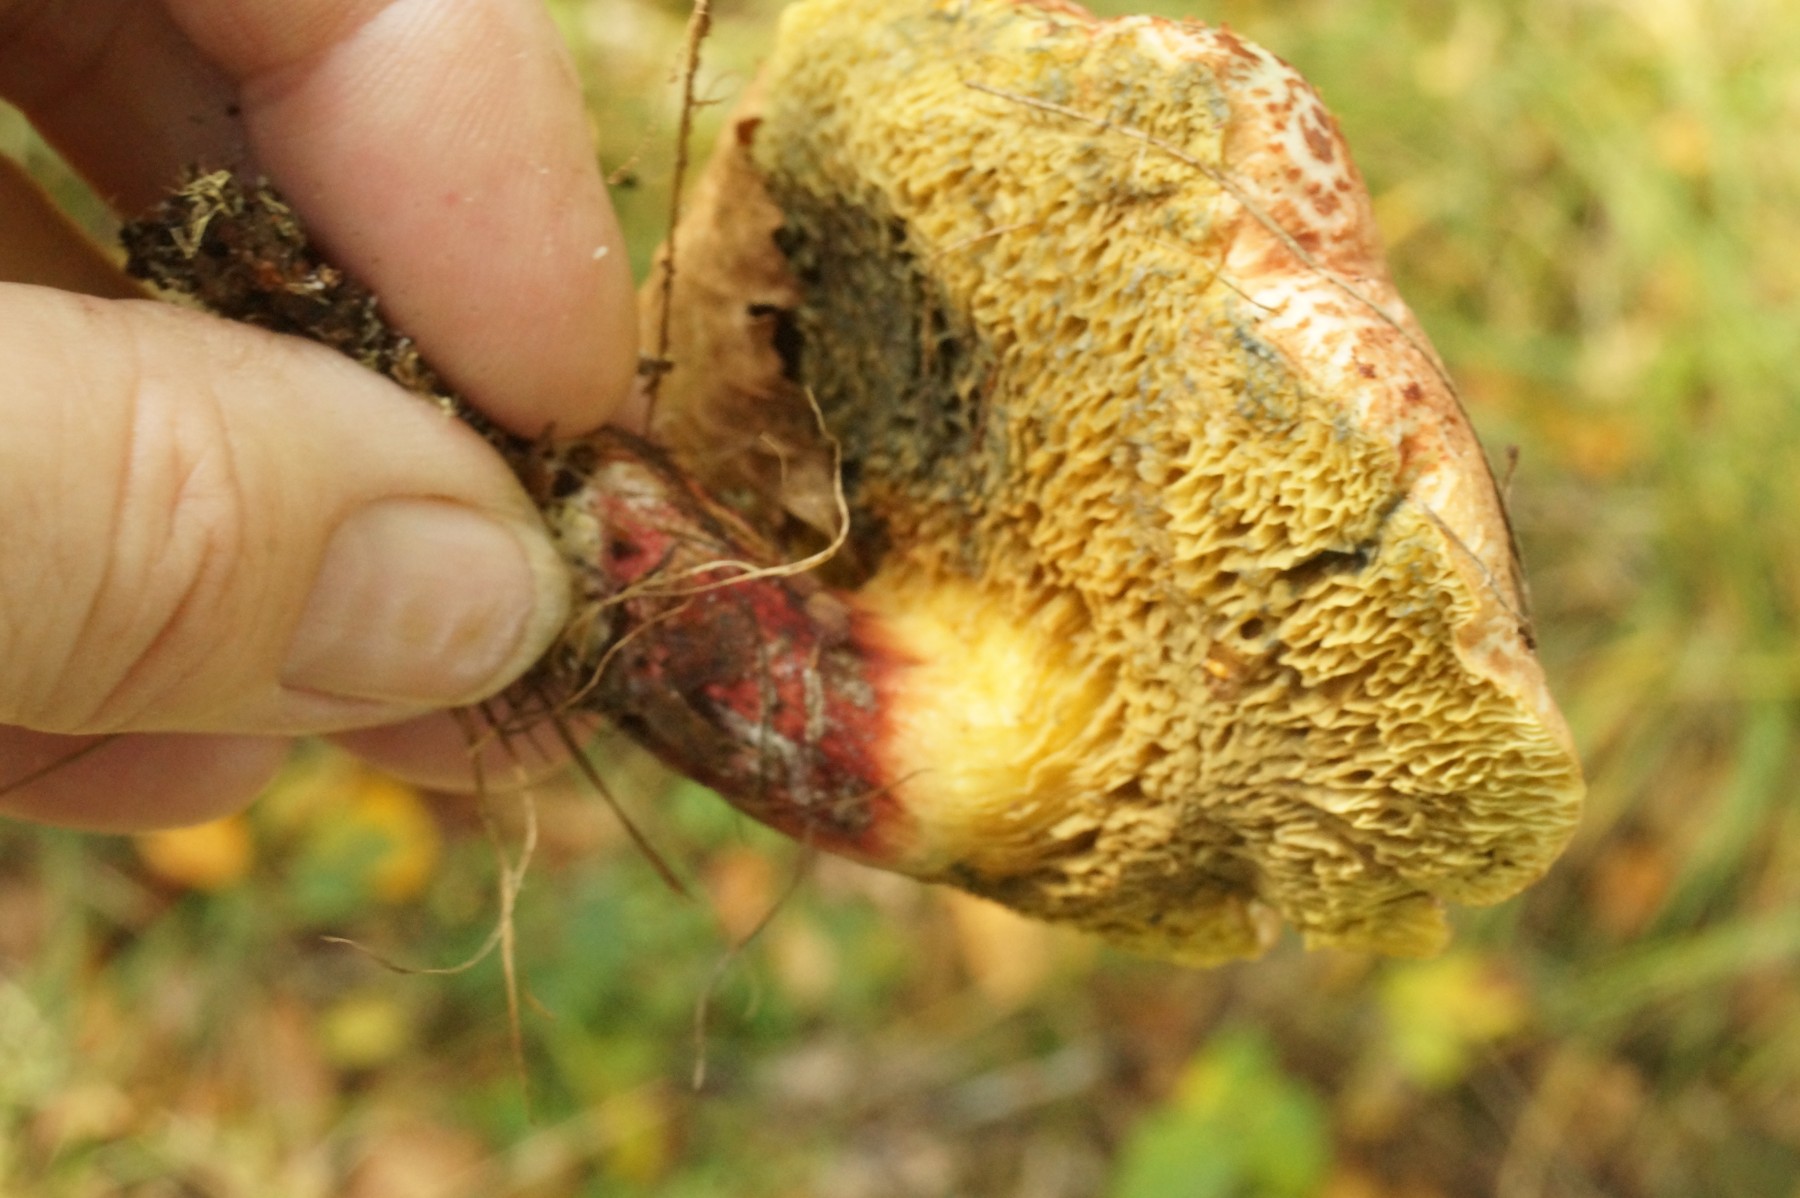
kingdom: Fungi
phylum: Basidiomycota
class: Agaricomycetes
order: Boletales
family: Boletaceae
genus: Xerocomellus
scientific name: Xerocomellus
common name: dværgrørhat
